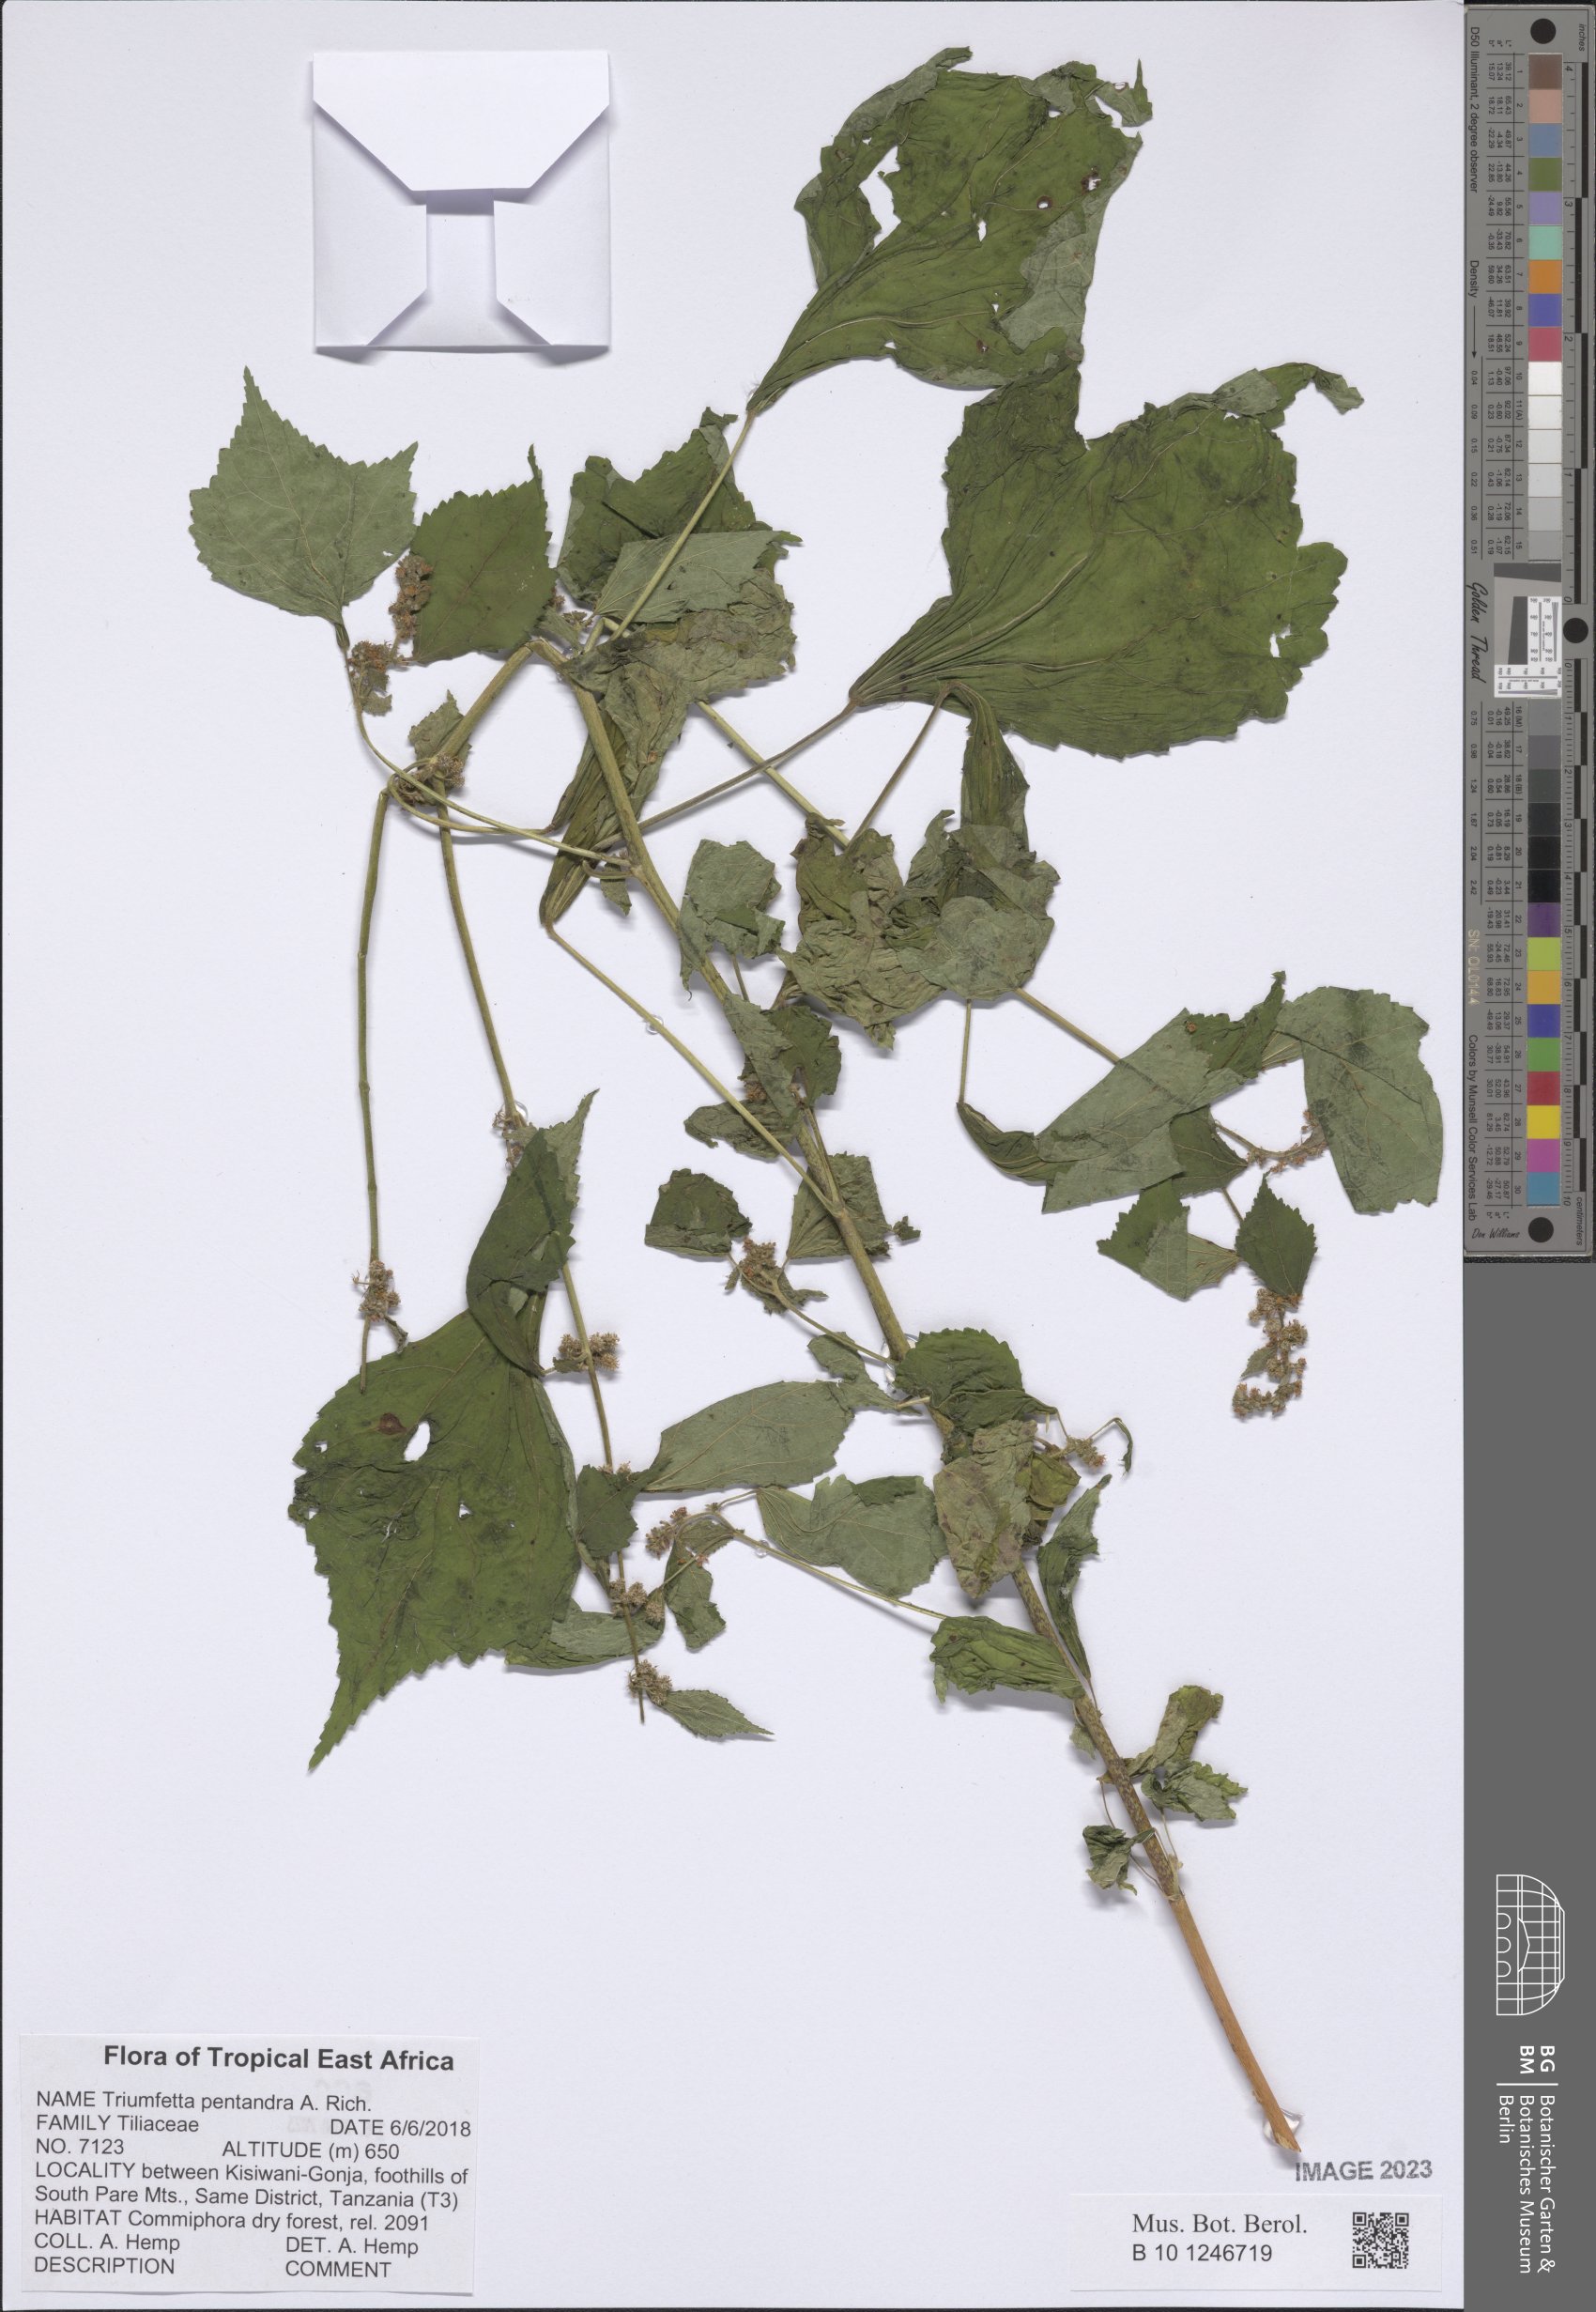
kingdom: Plantae
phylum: Tracheophyta
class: Magnoliopsida
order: Malvales
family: Malvaceae
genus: Triumfetta
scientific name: Triumfetta pentandra
